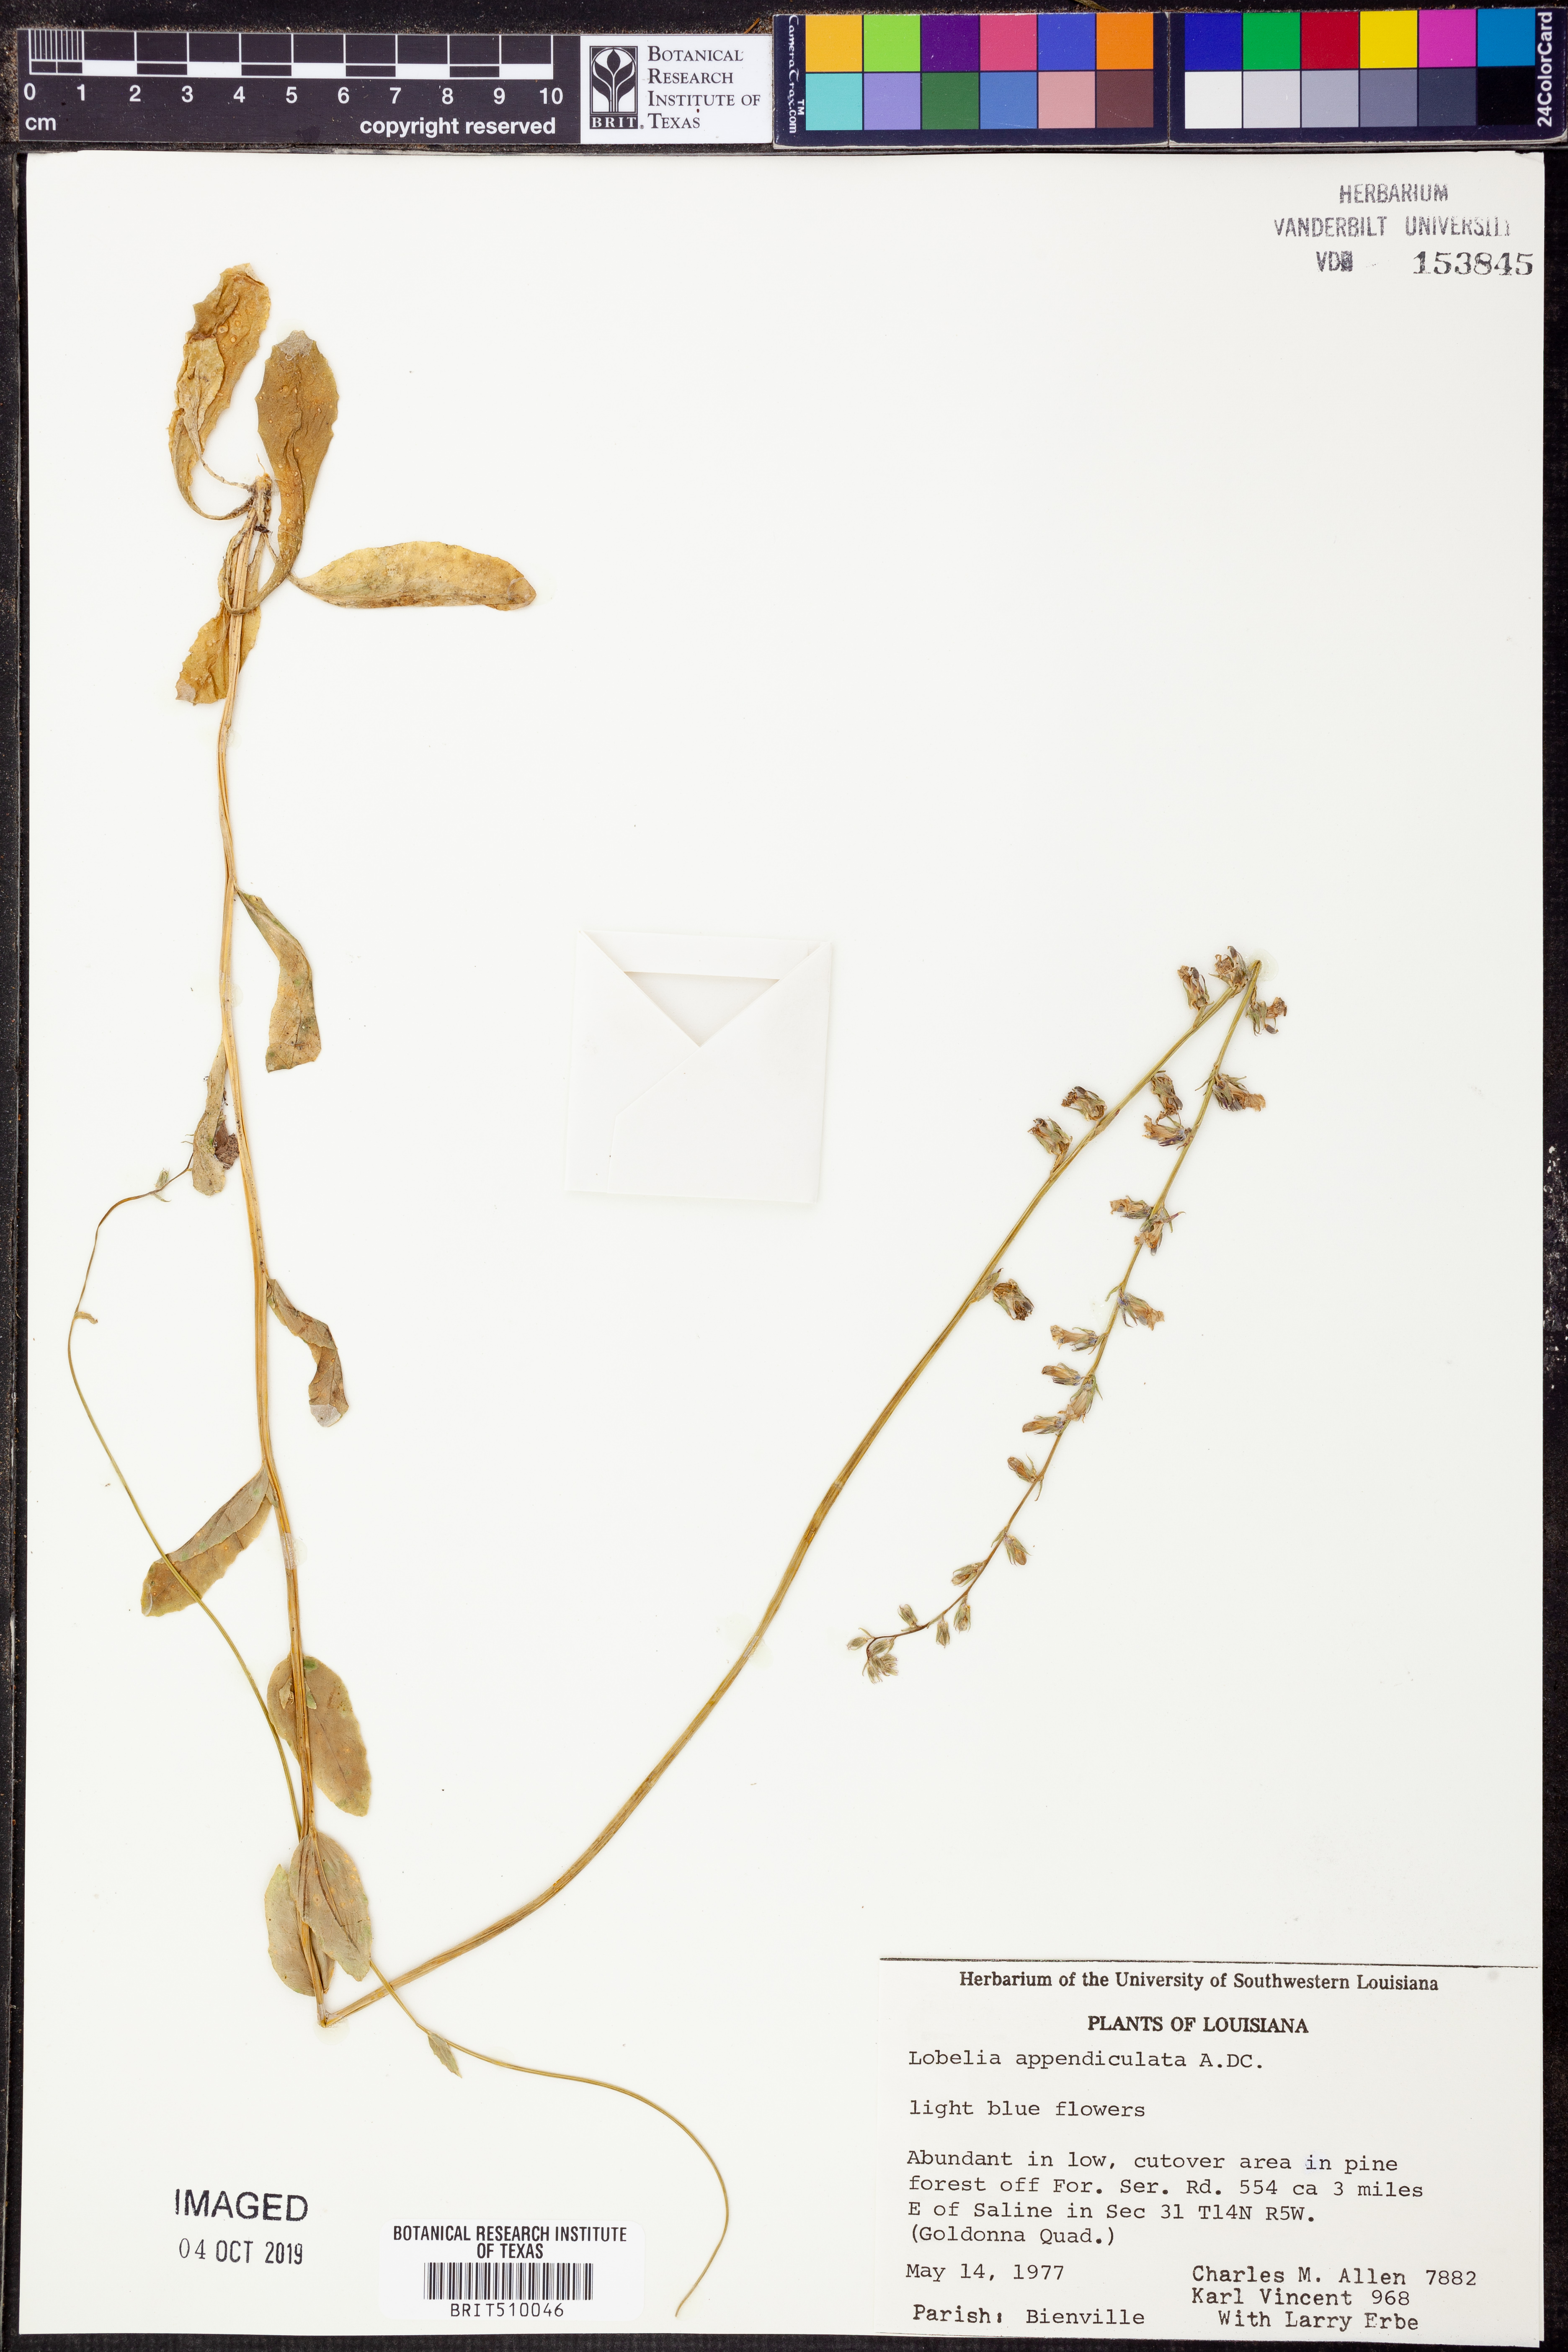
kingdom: Plantae
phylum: Tracheophyta
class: Magnoliopsida
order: Asterales
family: Campanulaceae
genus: Lobelia
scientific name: Lobelia appendiculata
